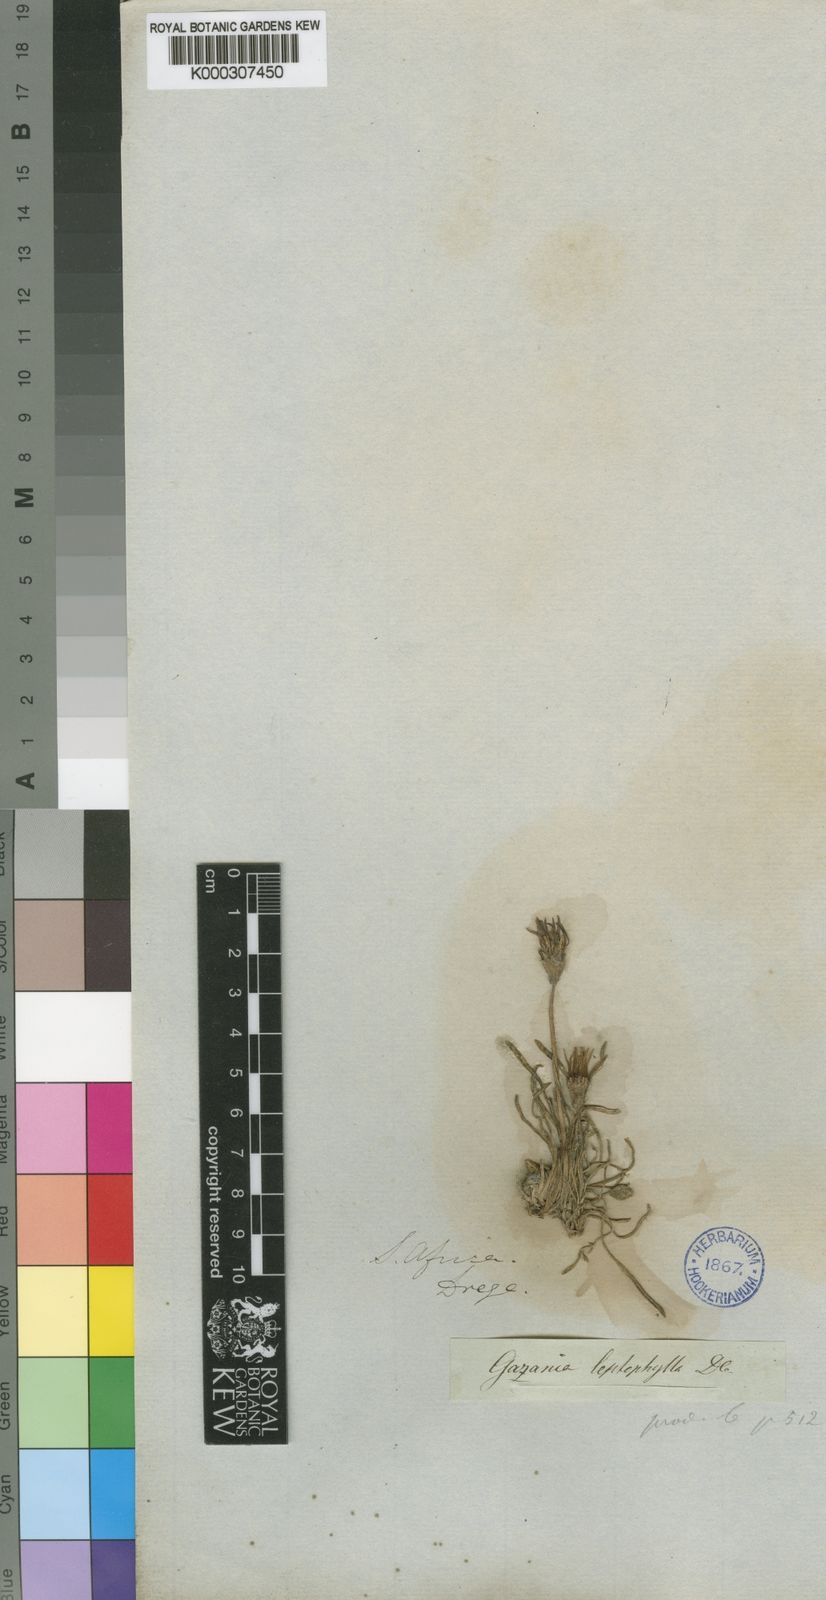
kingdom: Plantae
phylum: Tracheophyta
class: Magnoliopsida
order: Asterales
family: Asteraceae
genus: Gazania
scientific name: Gazania krebsiana
